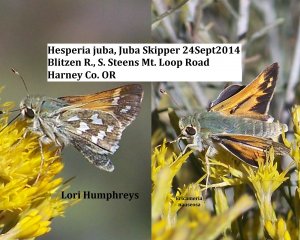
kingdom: Animalia
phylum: Arthropoda
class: Insecta
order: Lepidoptera
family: Hesperiidae
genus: Hesperia
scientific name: Hesperia juba
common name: Juba Skipper
